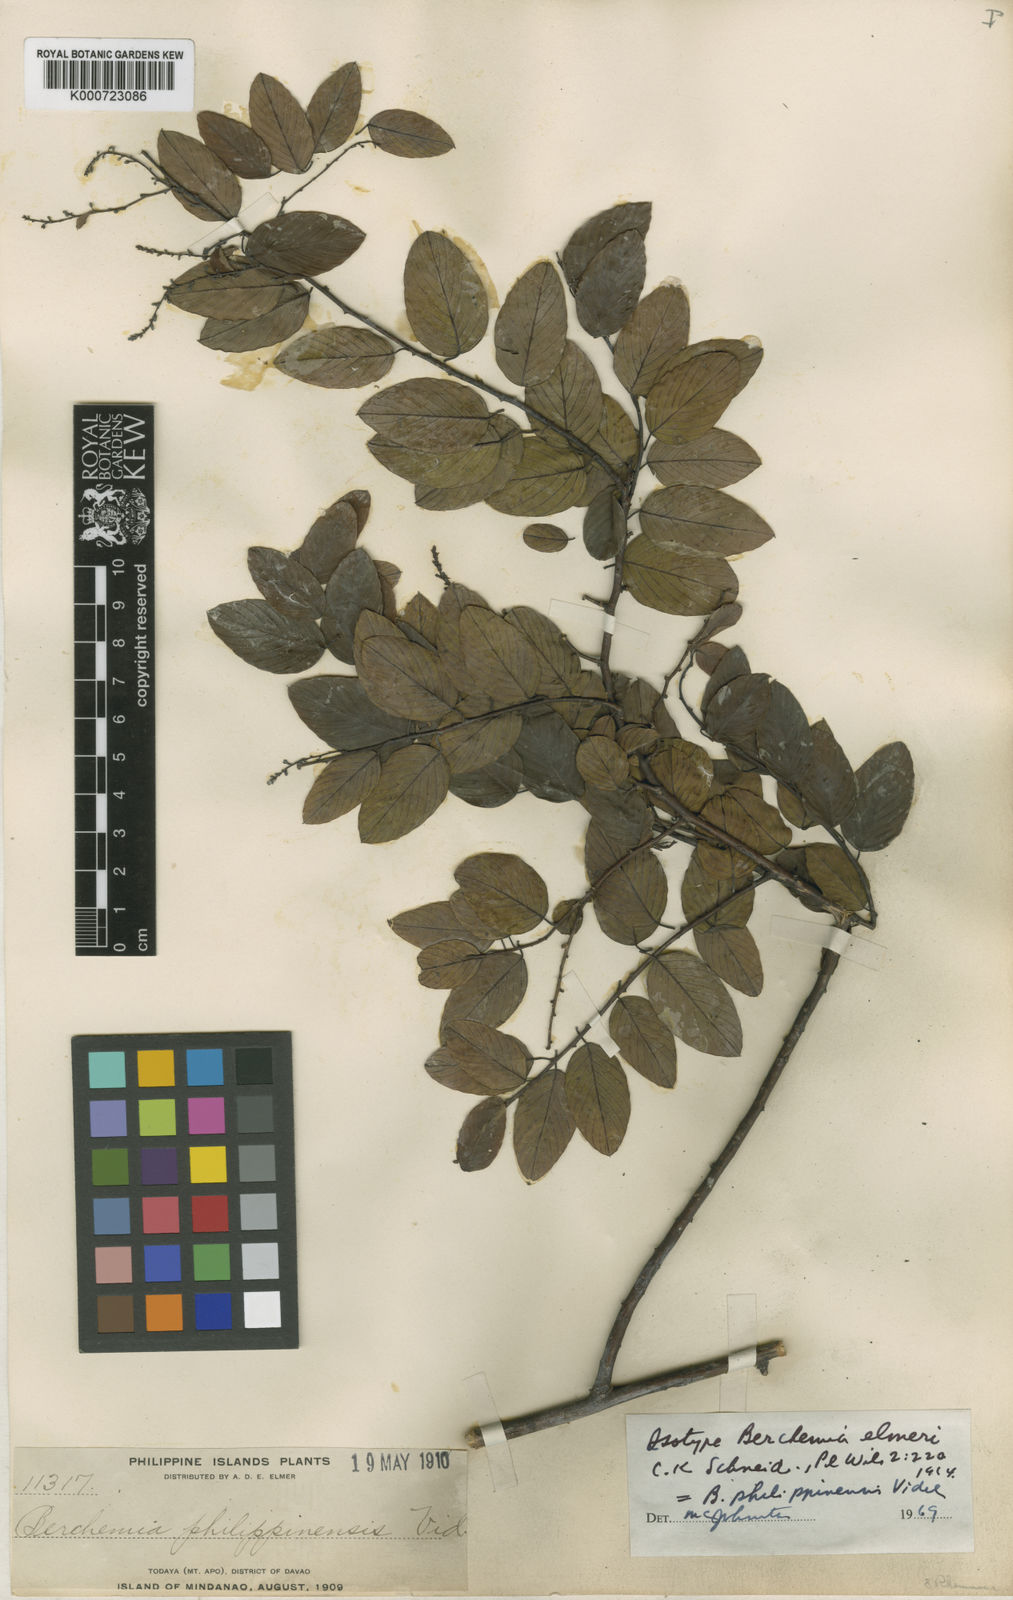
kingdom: Plantae
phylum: Tracheophyta
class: Magnoliopsida
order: Rosales
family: Rhamnaceae
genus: Berchemia
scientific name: Berchemia philippinensis
